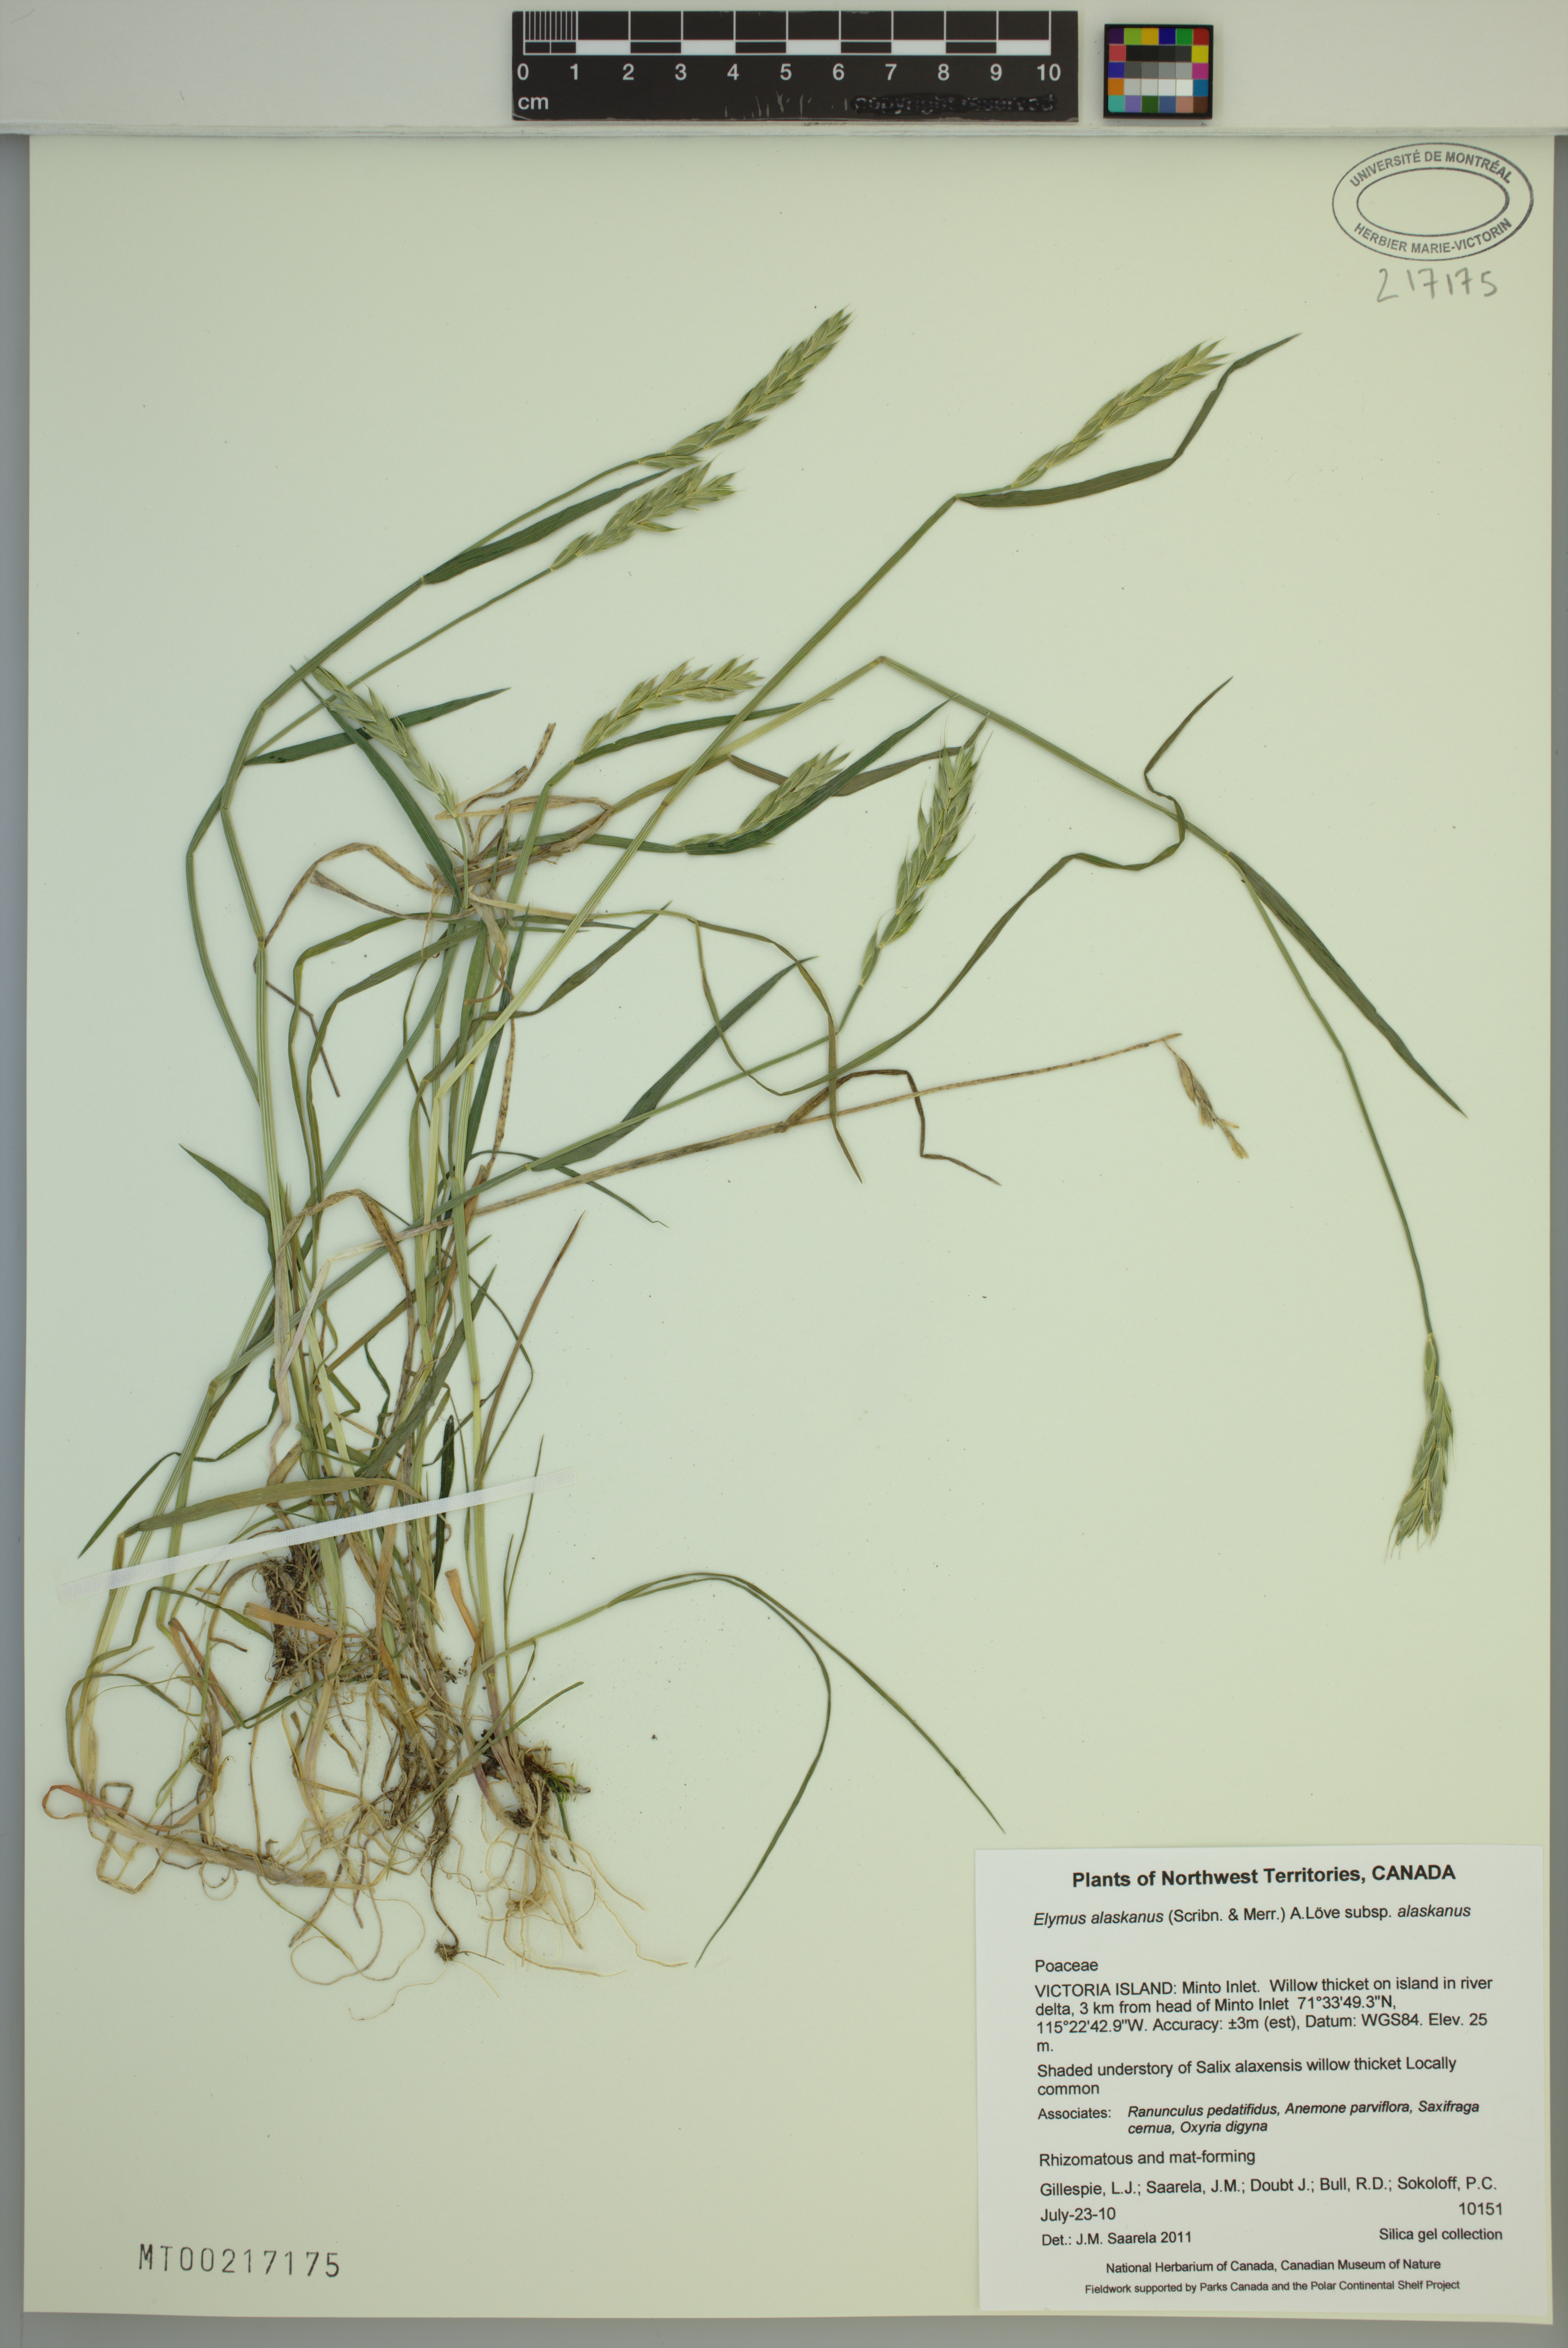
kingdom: Plantae
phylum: Tracheophyta
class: Liliopsida
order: Poales
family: Poaceae
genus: Elymus
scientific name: Elymus alaskanus
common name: Alaska wheatgrass
